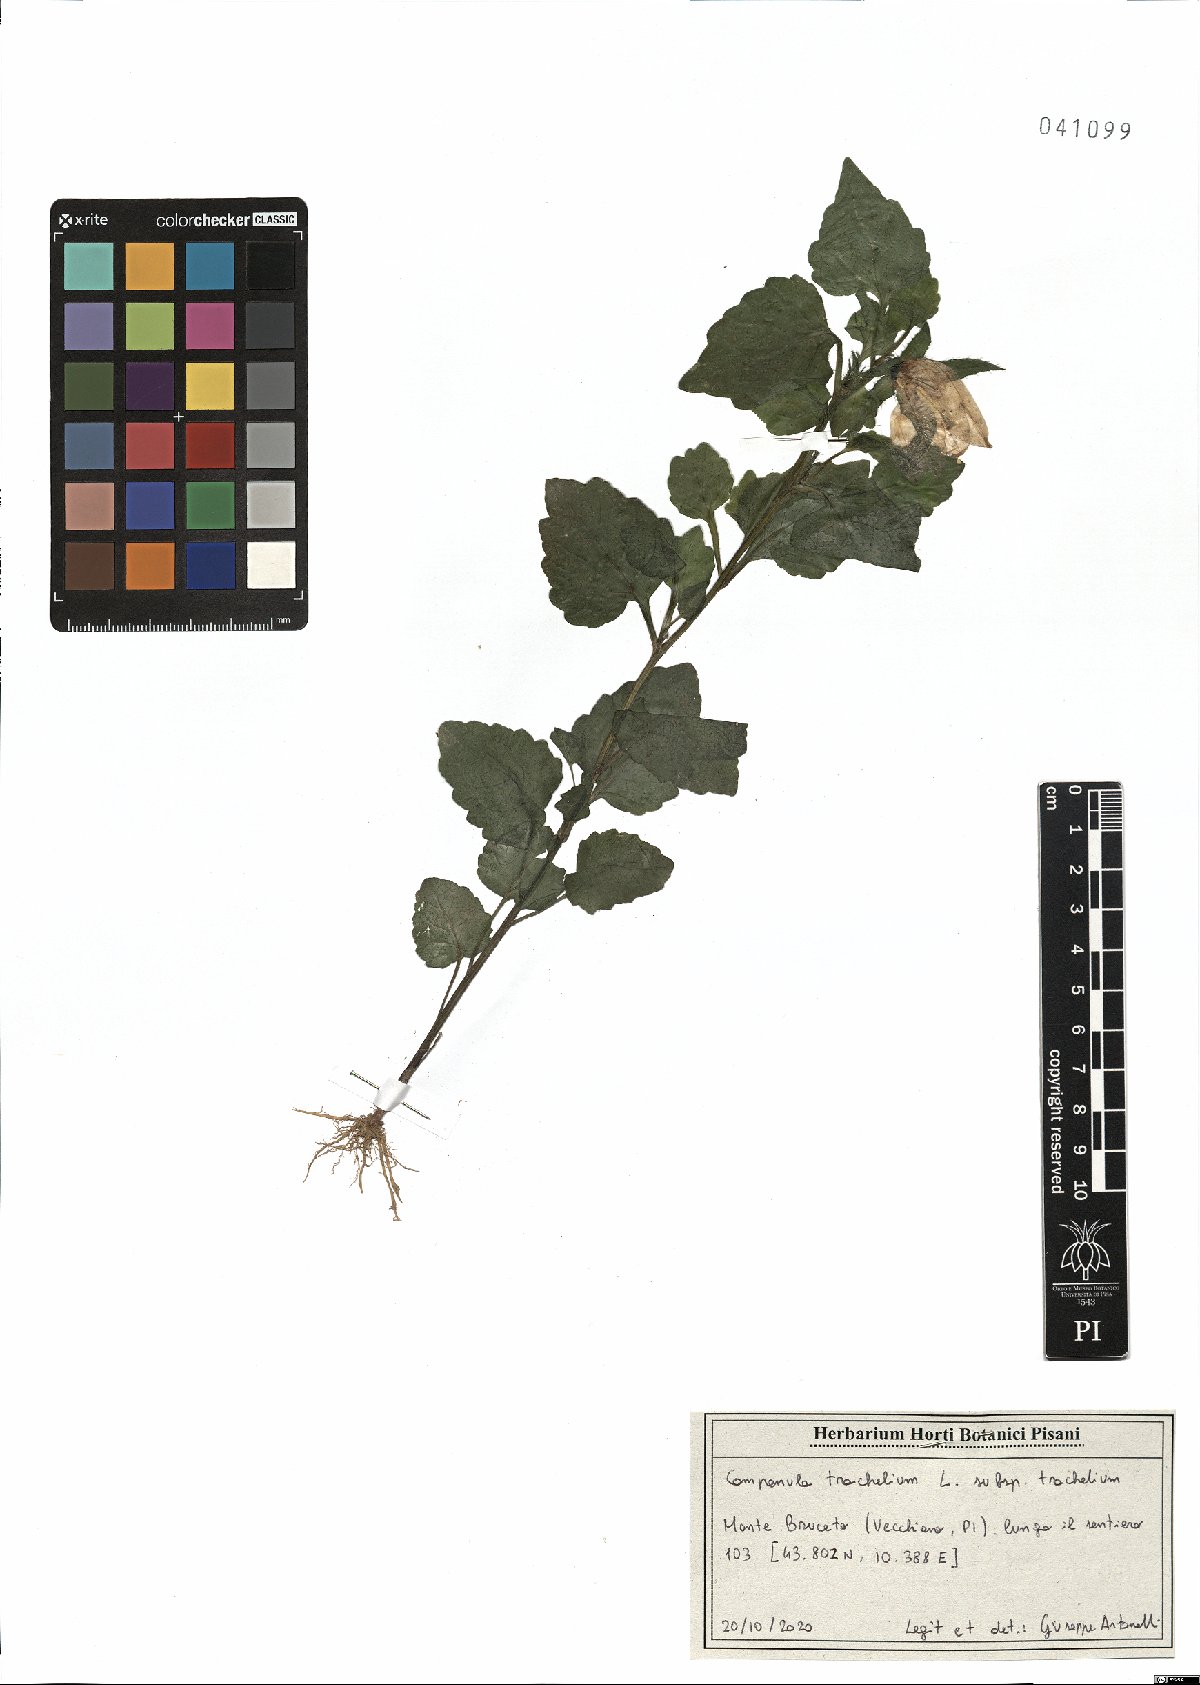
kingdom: Plantae
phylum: Tracheophyta
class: Magnoliopsida
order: Asterales
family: Campanulaceae
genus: Campanula
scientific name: Campanula trachelium
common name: Nettle-leaved bellflower
